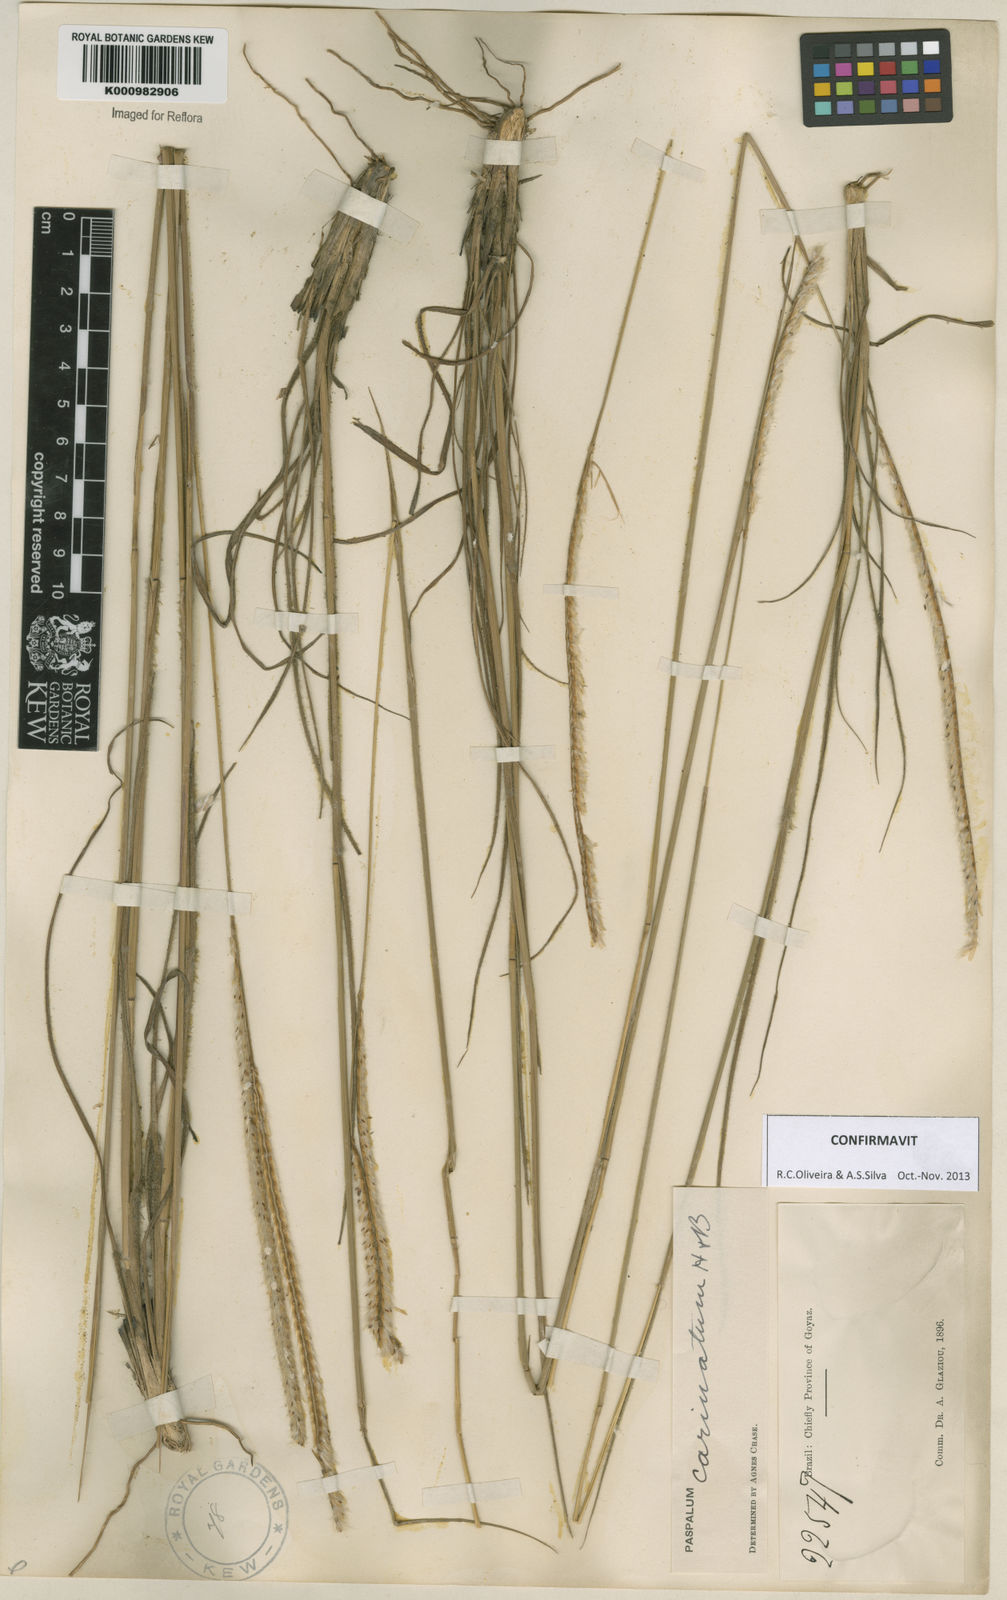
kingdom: Plantae
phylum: Tracheophyta
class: Liliopsida
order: Poales
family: Poaceae
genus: Paspalum
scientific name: Paspalum
